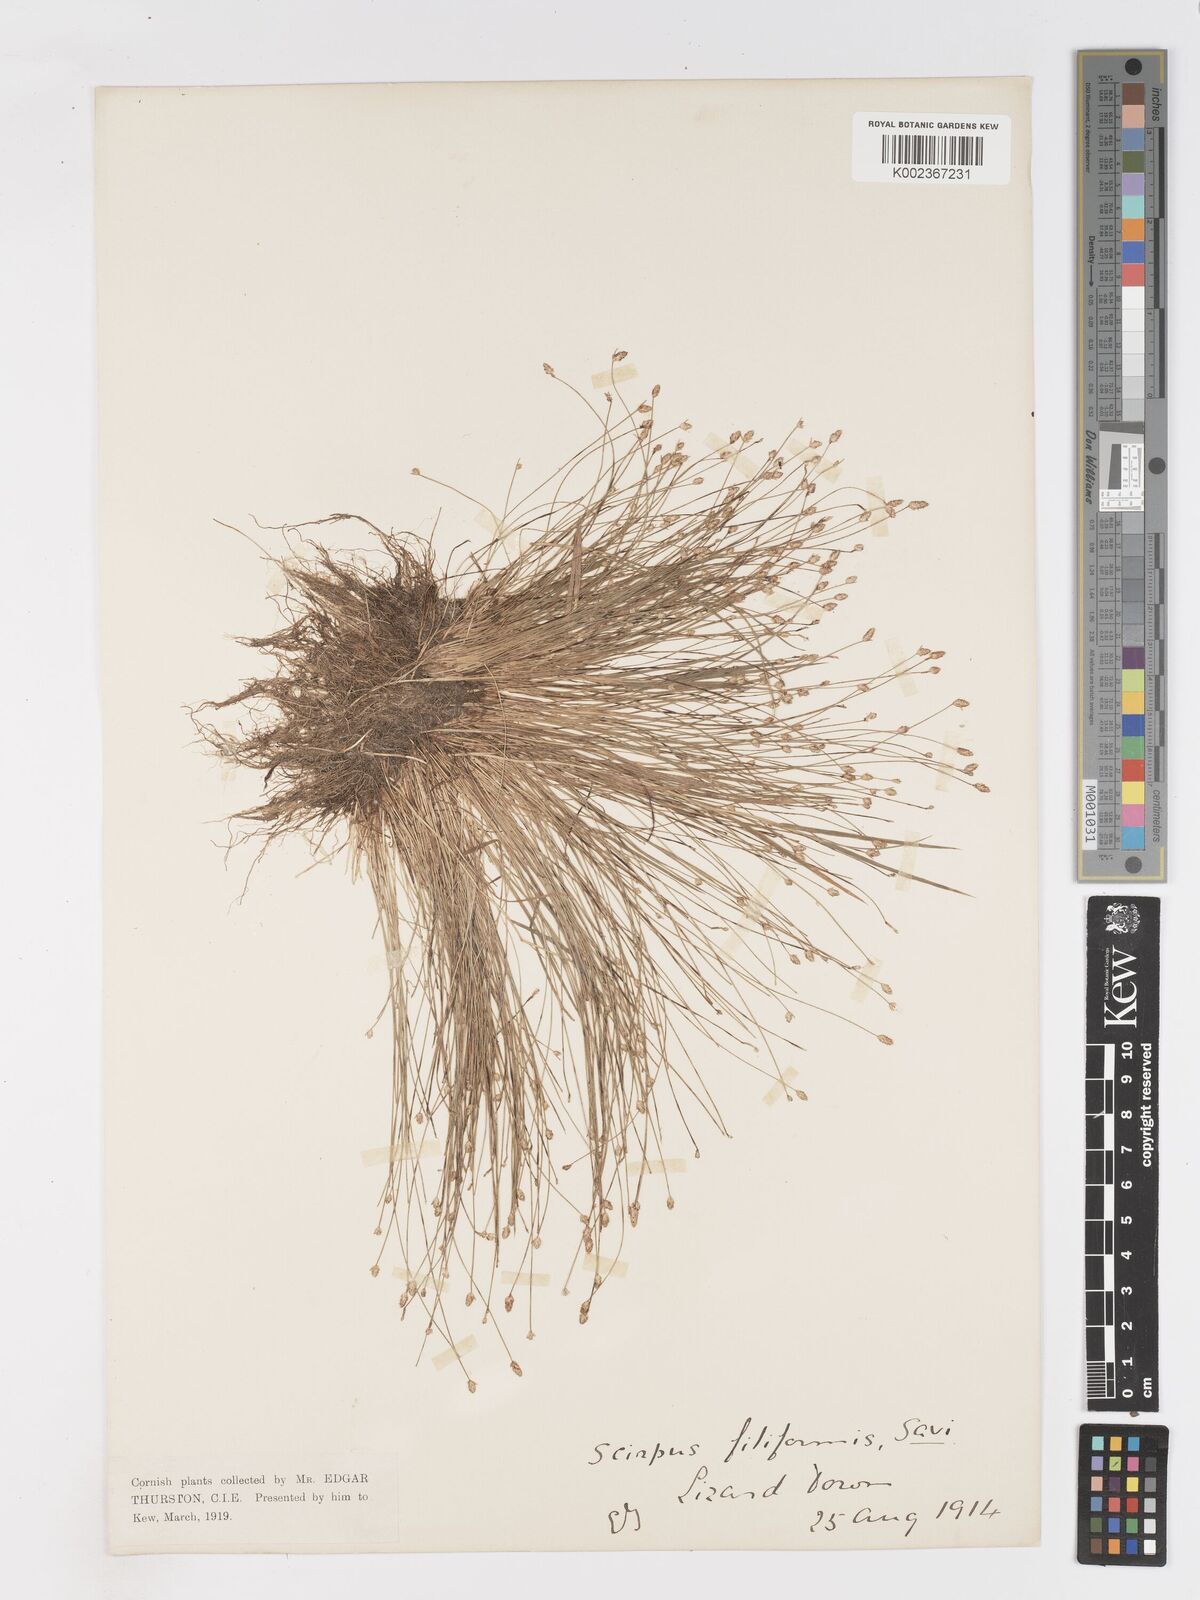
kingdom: Plantae
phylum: Tracheophyta
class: Liliopsida
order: Poales
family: Cyperaceae
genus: Isolepis
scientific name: Isolepis cernua
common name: Slender club-rush
